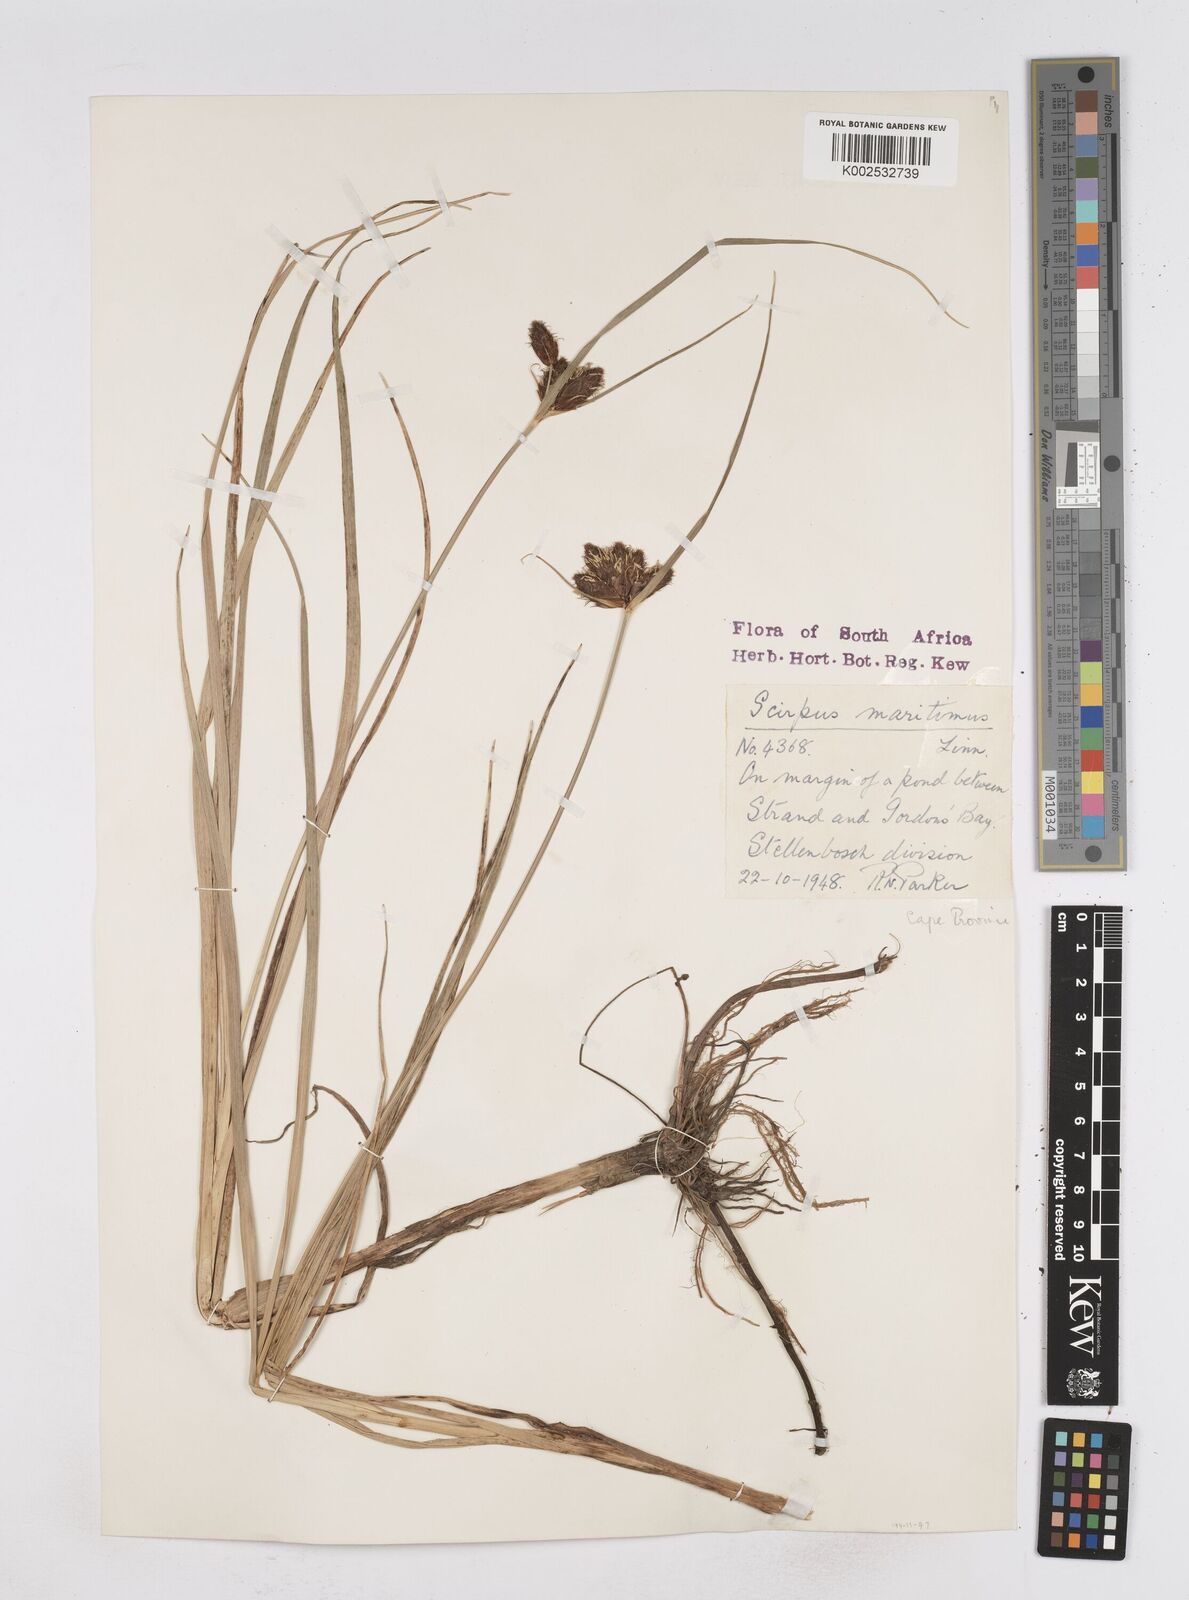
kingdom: Plantae
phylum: Tracheophyta
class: Liliopsida
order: Poales
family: Cyperaceae
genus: Bolboschoenus
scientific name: Bolboschoenus maritimus
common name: Sea club-rush
